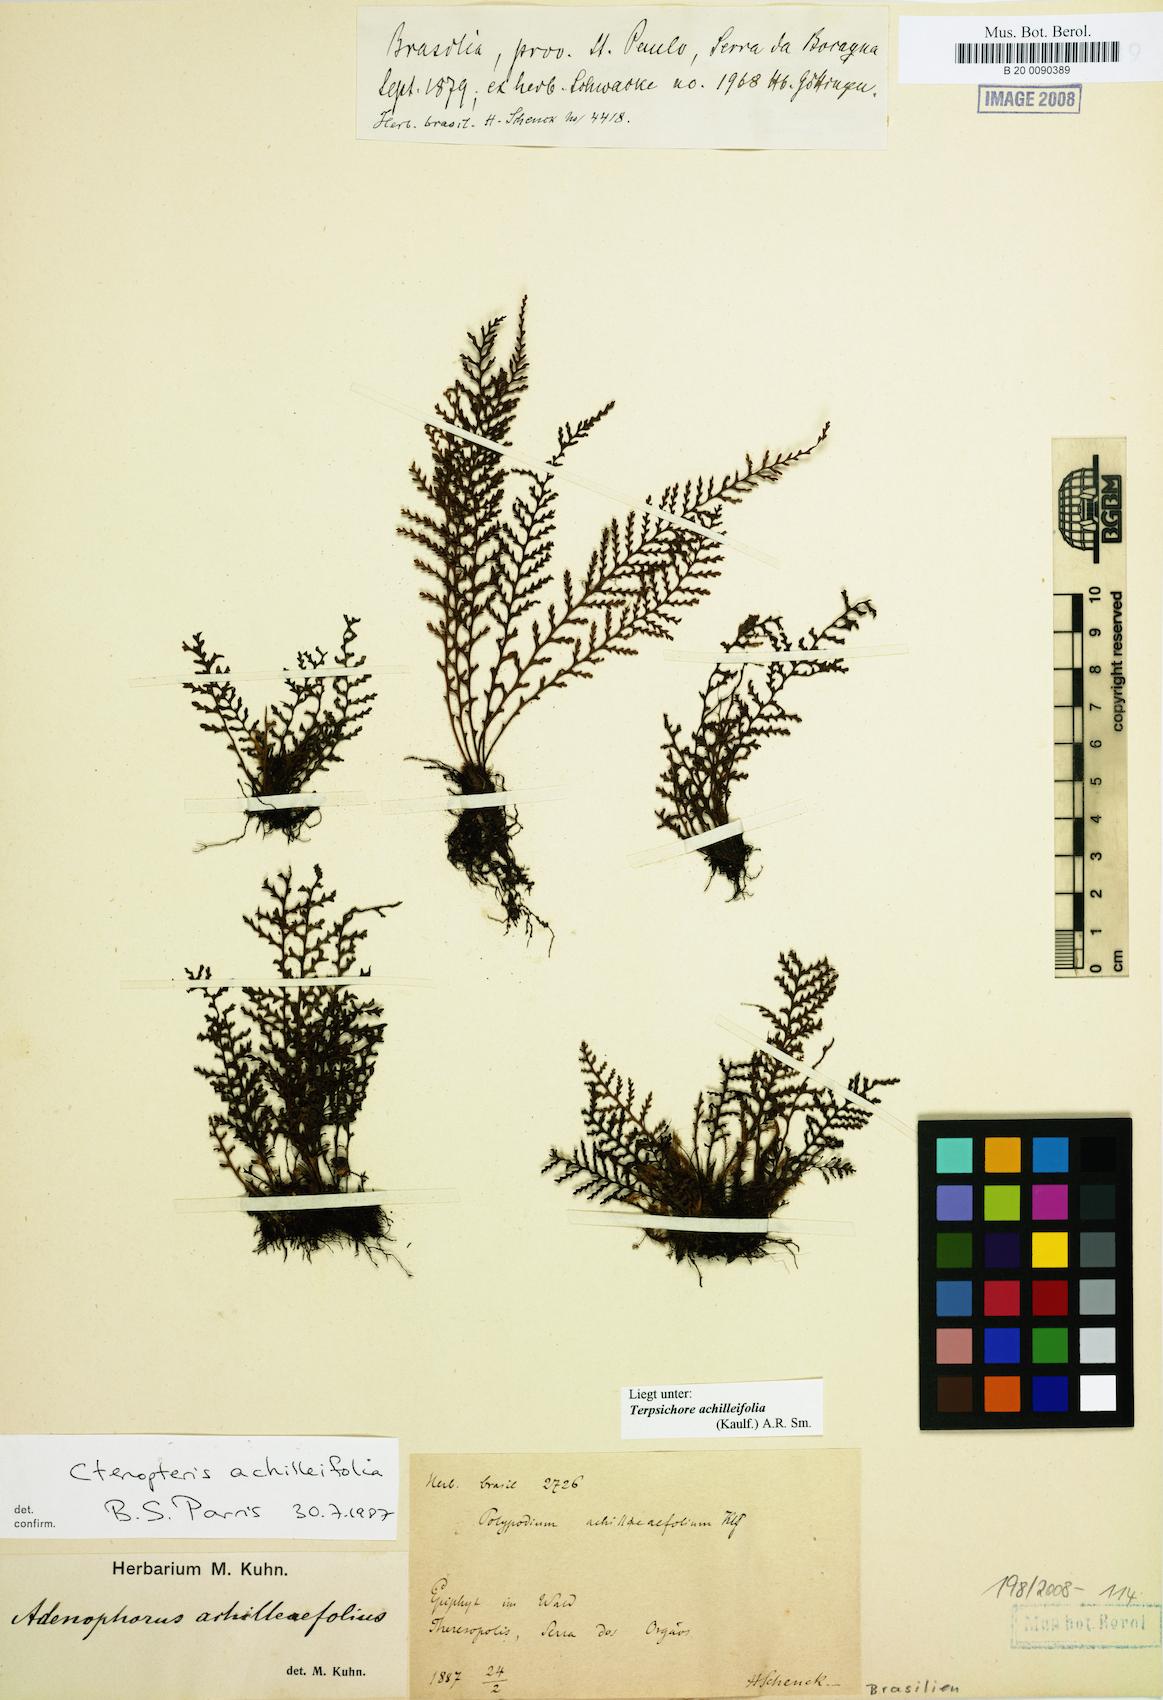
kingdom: Plantae
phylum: Tracheophyta
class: Polypodiopsida
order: Polypodiales
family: Polypodiaceae
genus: Moranopteris
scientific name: Moranopteris achilleifolia
